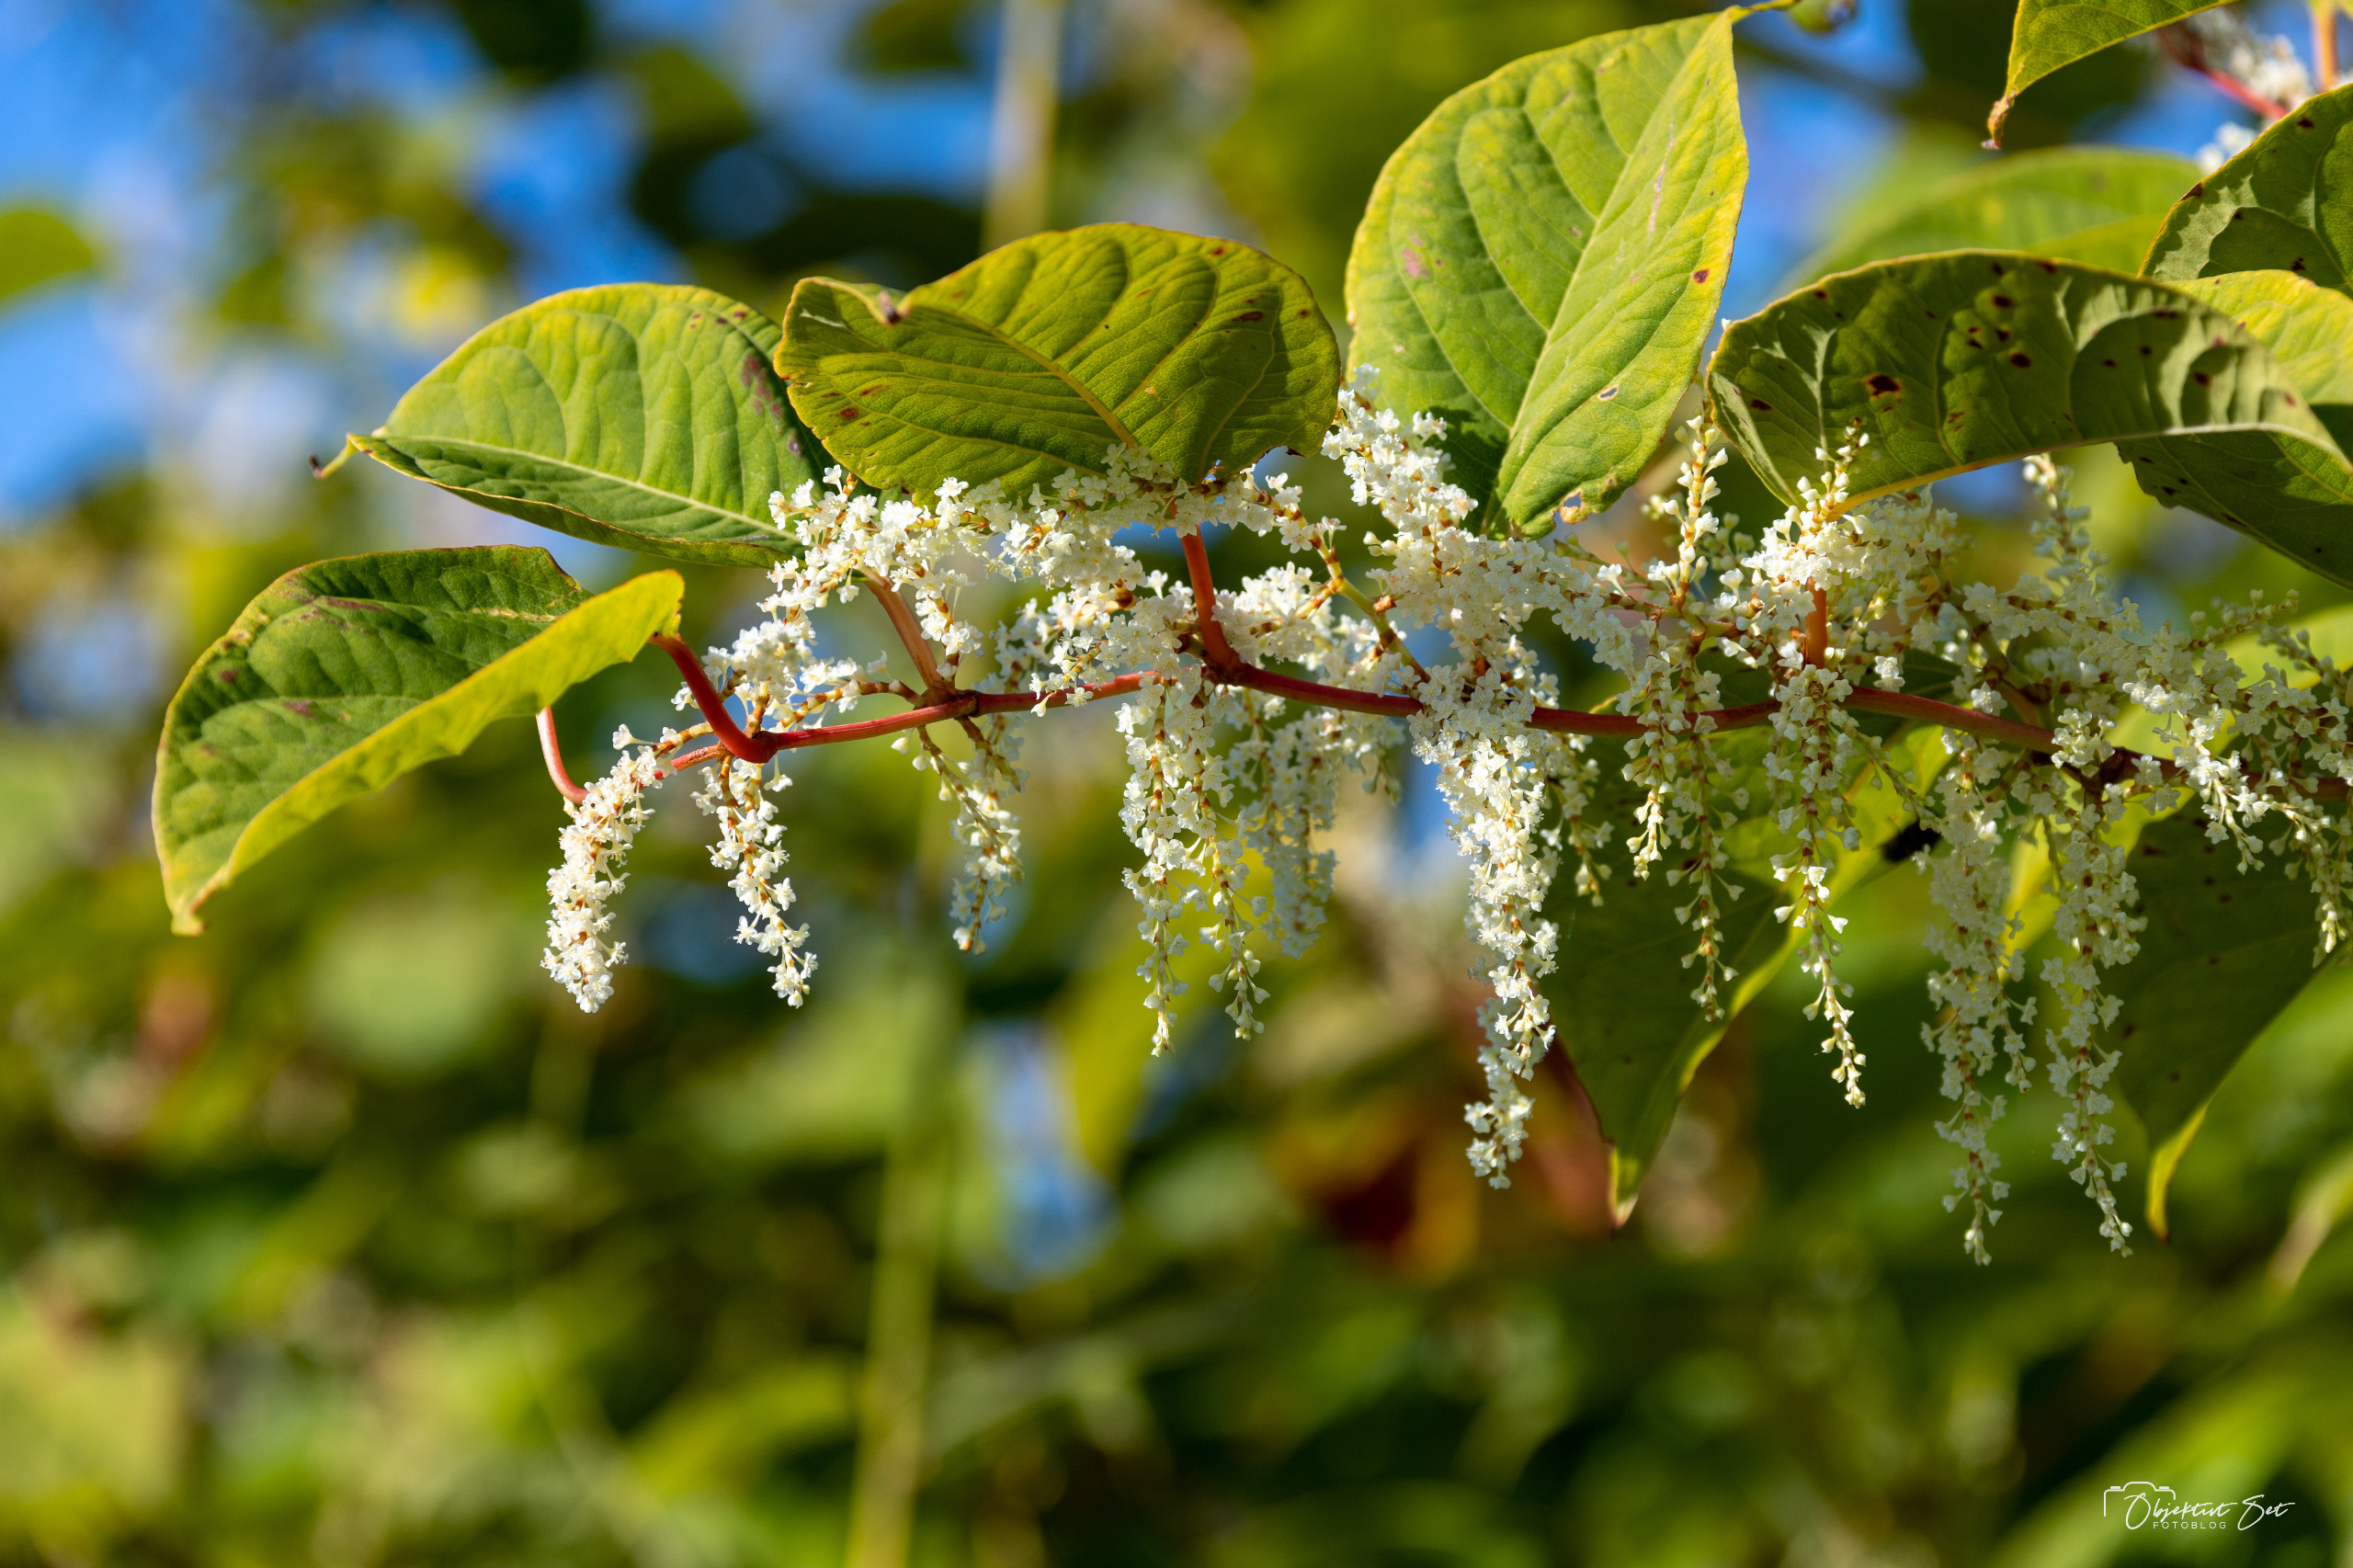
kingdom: Plantae
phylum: Tracheophyta
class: Magnoliopsida
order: Caryophyllales
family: Polygonaceae
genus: Reynoutria
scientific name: Reynoutria japonica
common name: Japan-pileurt
